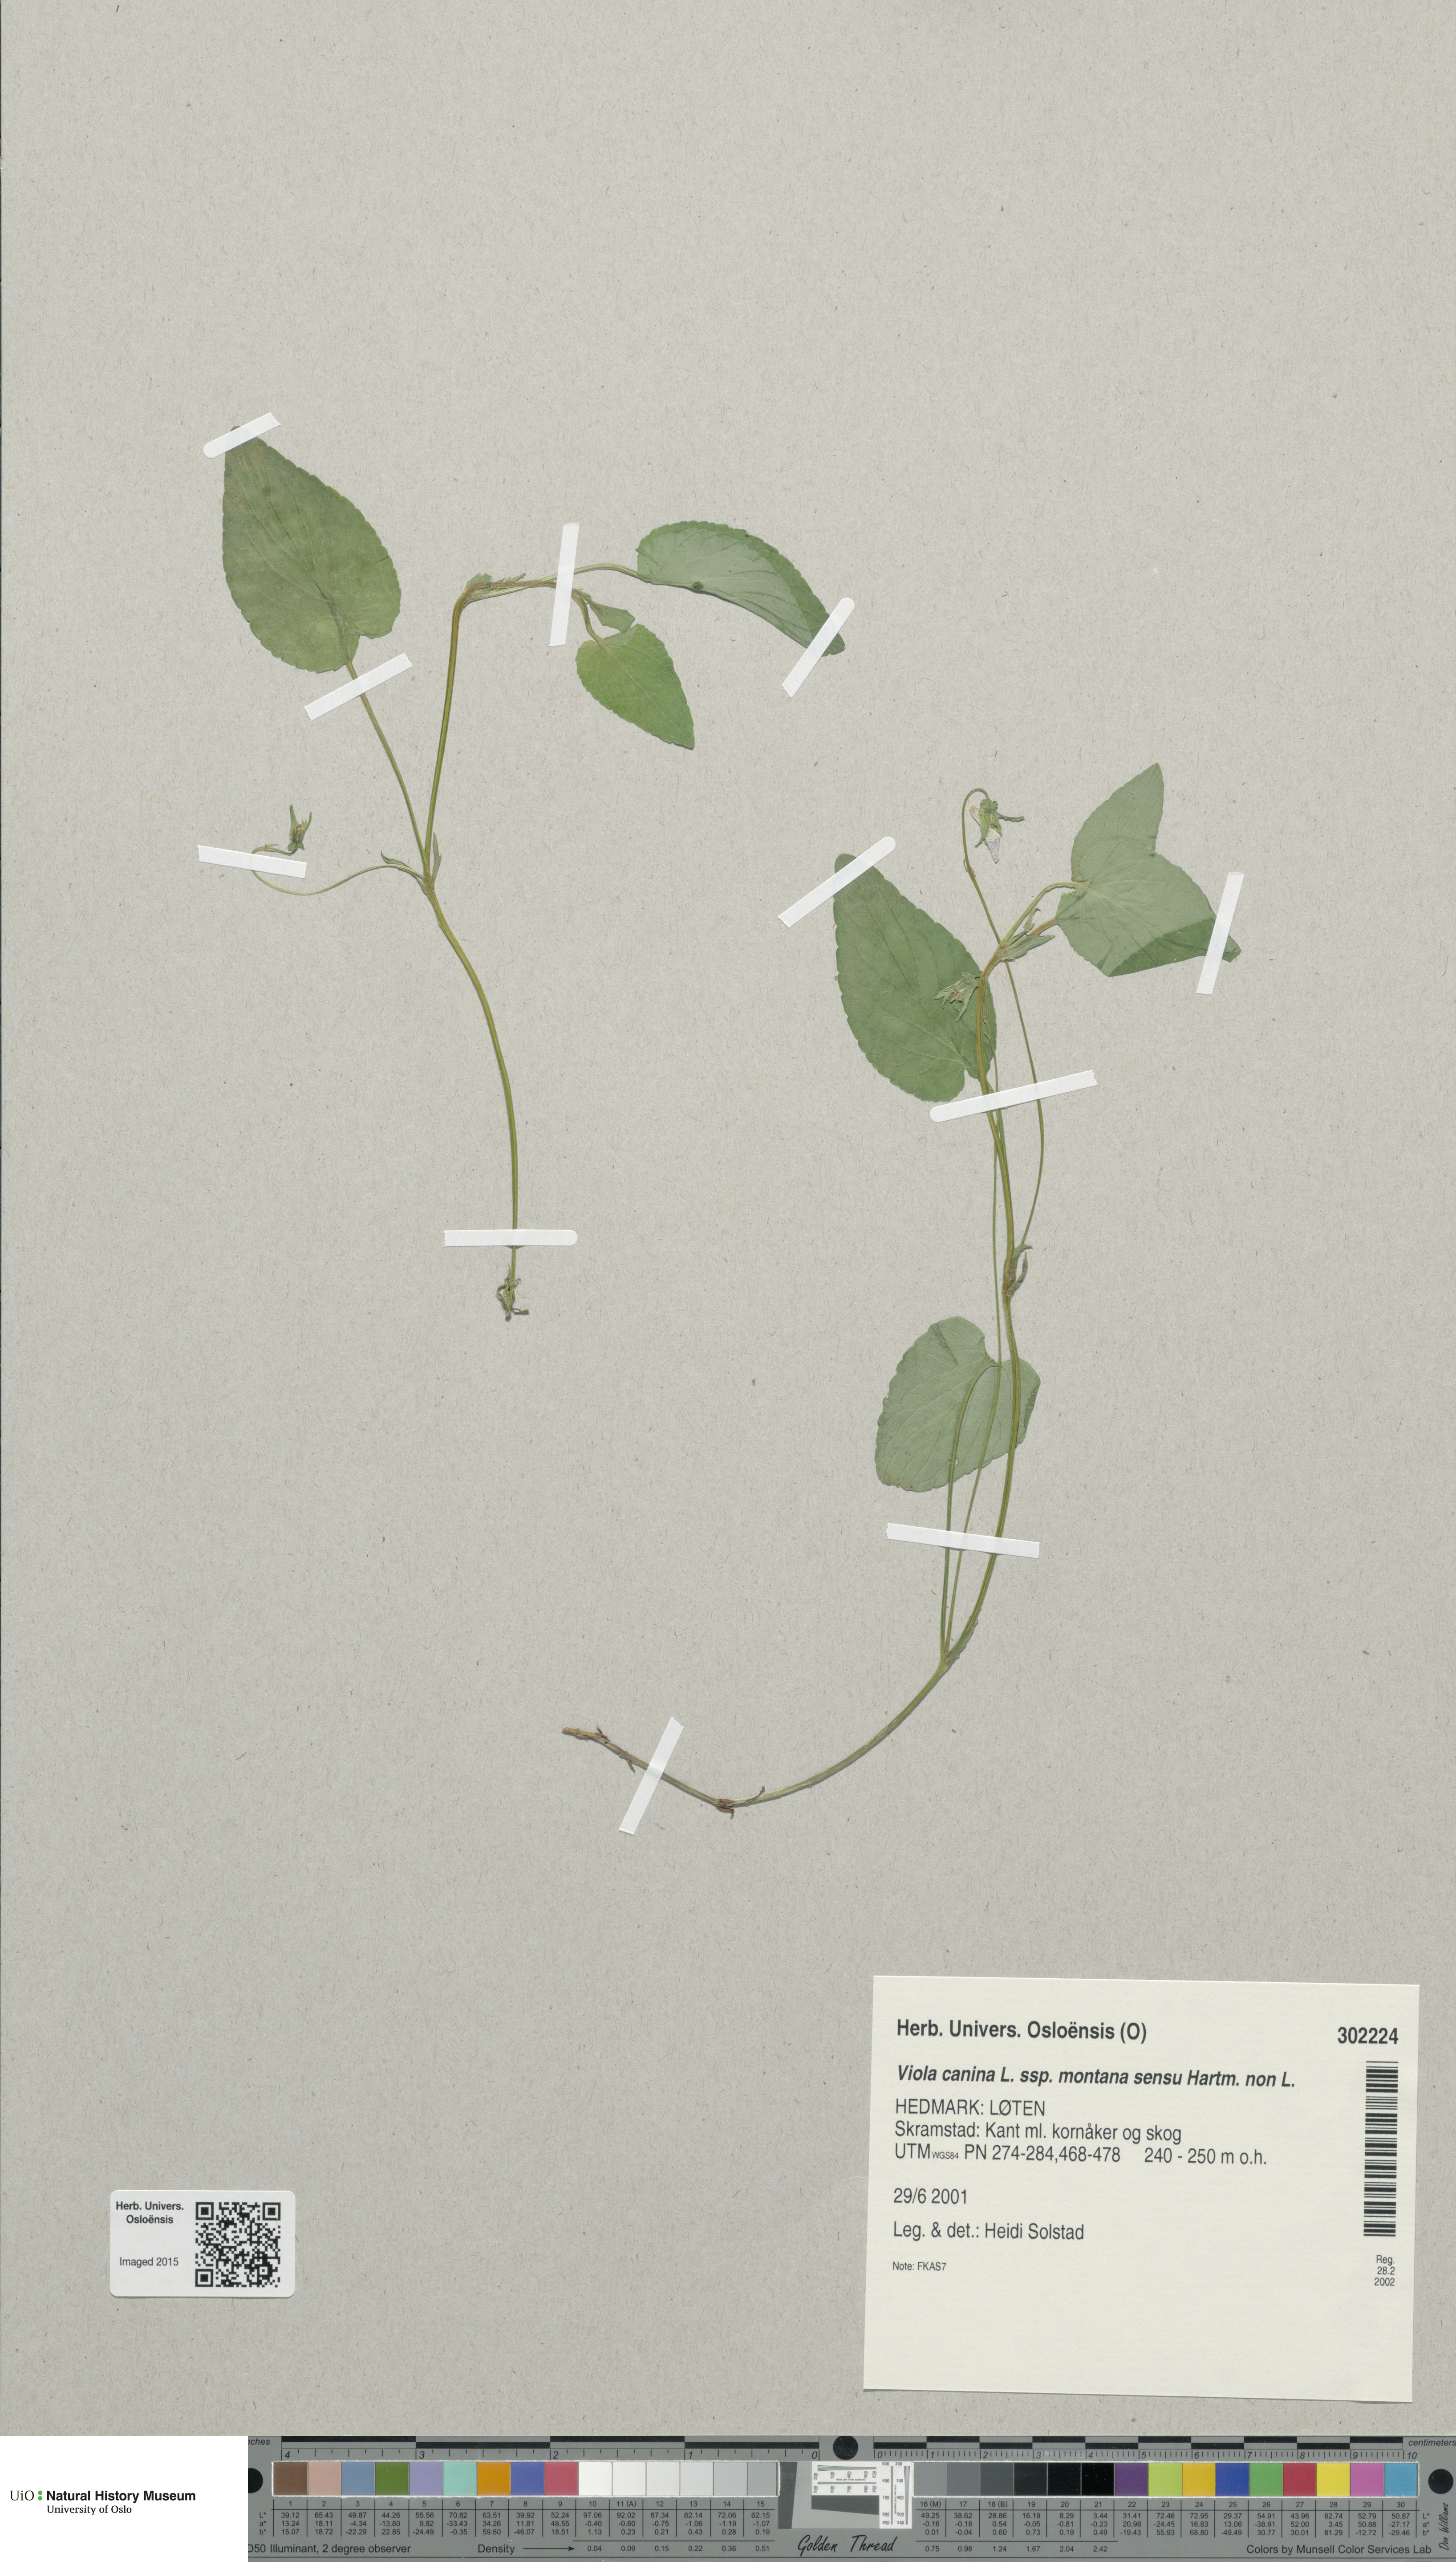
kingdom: Plantae
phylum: Tracheophyta
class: Magnoliopsida
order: Malpighiales
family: Violaceae
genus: Viola
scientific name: Viola ruppii
